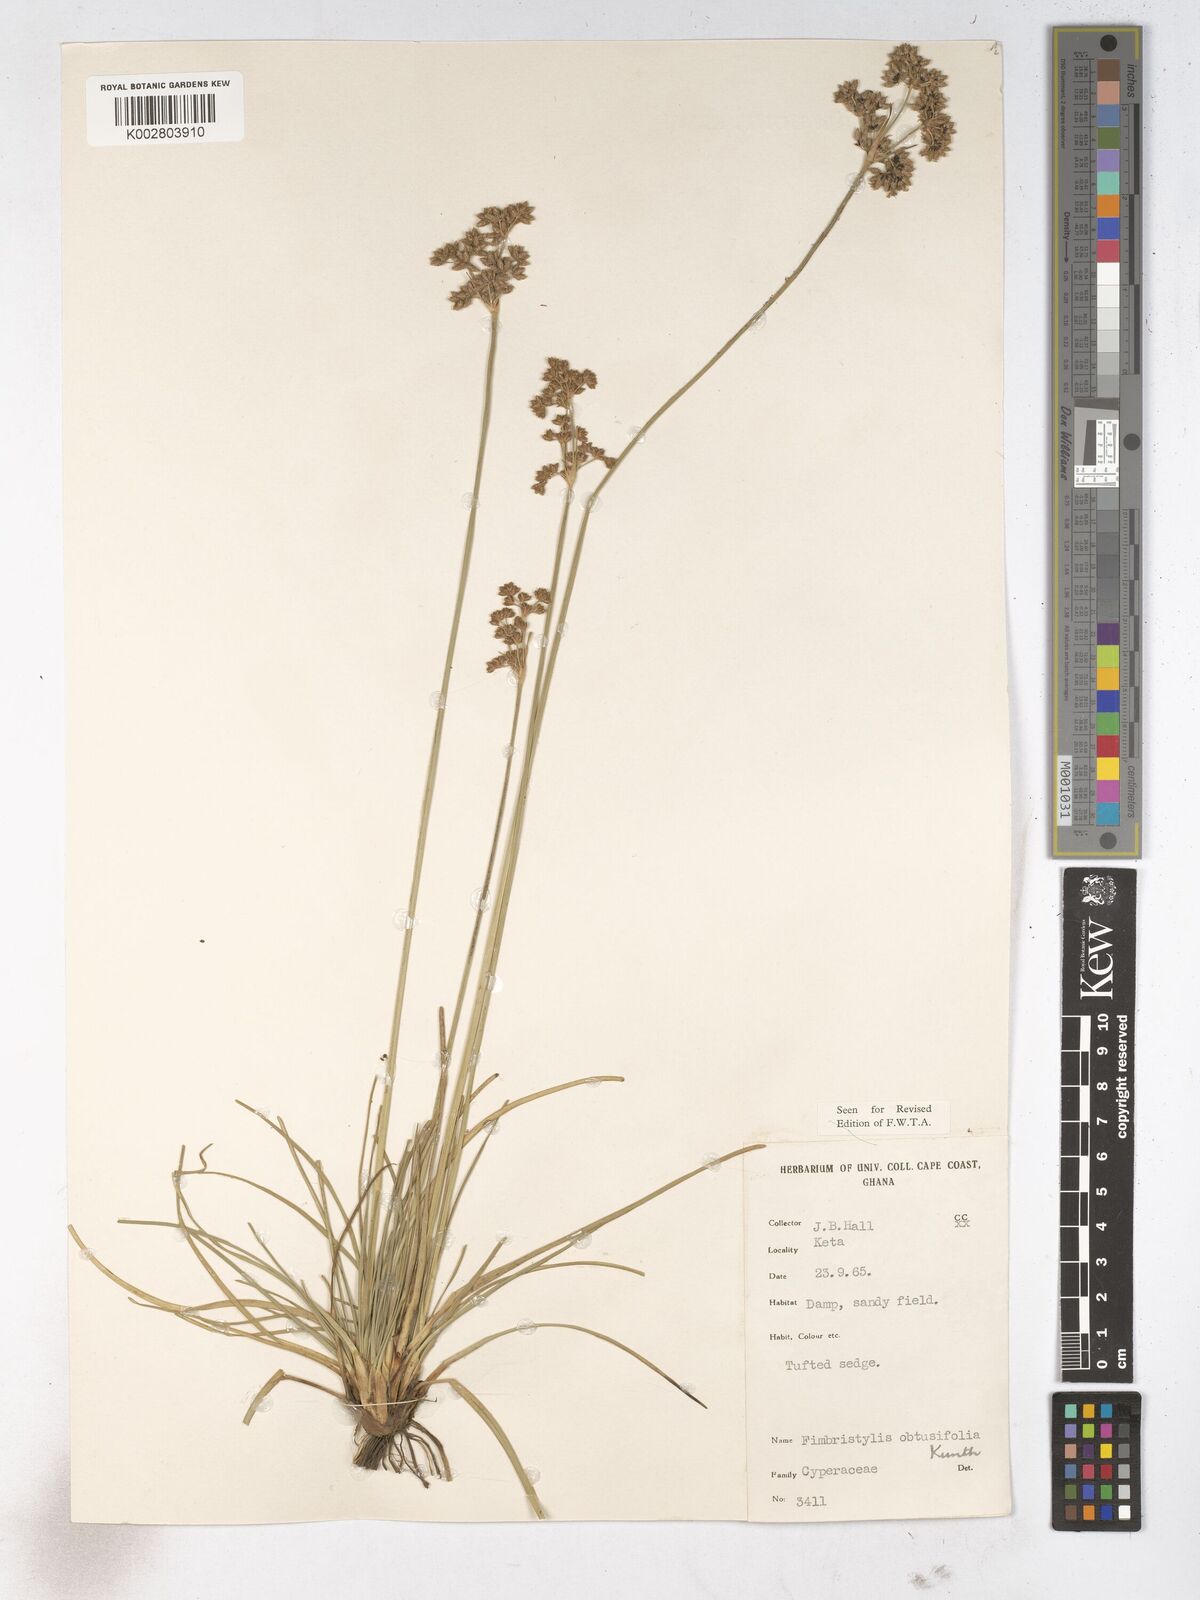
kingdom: Plantae
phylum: Tracheophyta
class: Liliopsida
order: Poales
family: Cyperaceae
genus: Fimbristylis
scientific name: Fimbristylis cymosa
